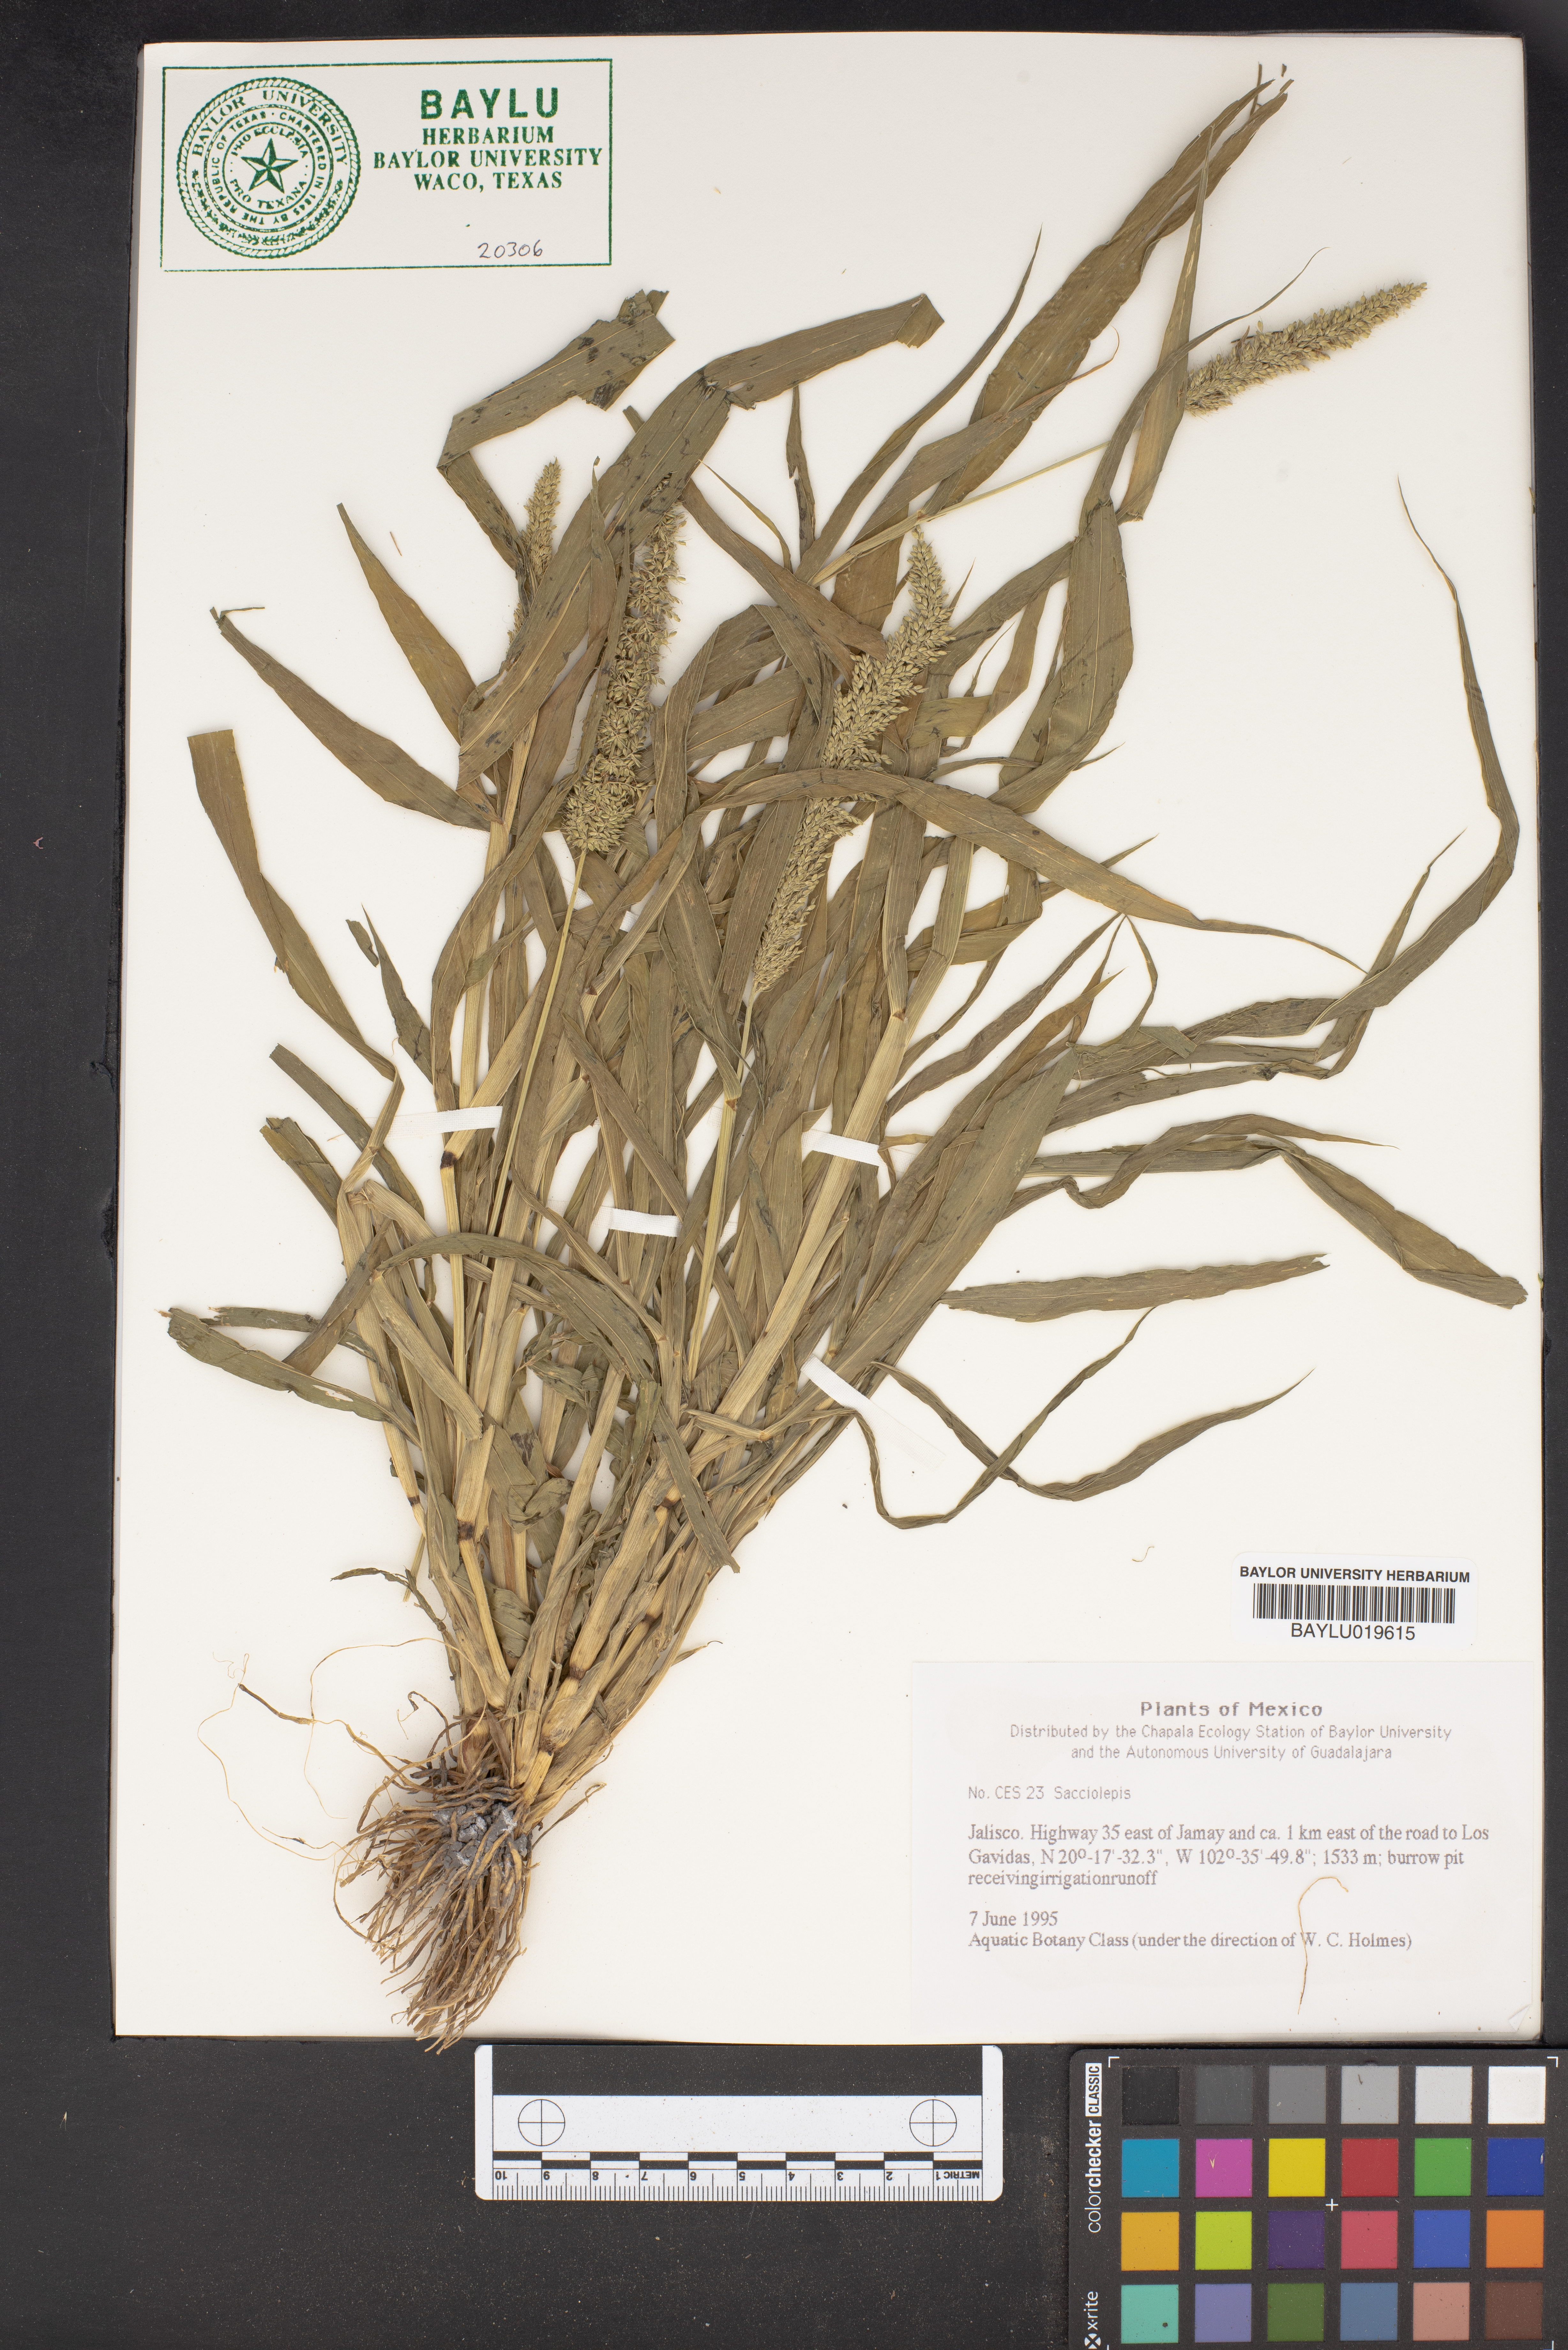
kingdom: Plantae
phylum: Tracheophyta
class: Liliopsida
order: Poales
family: Poaceae
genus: Sacciolepis
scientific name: Sacciolepis
